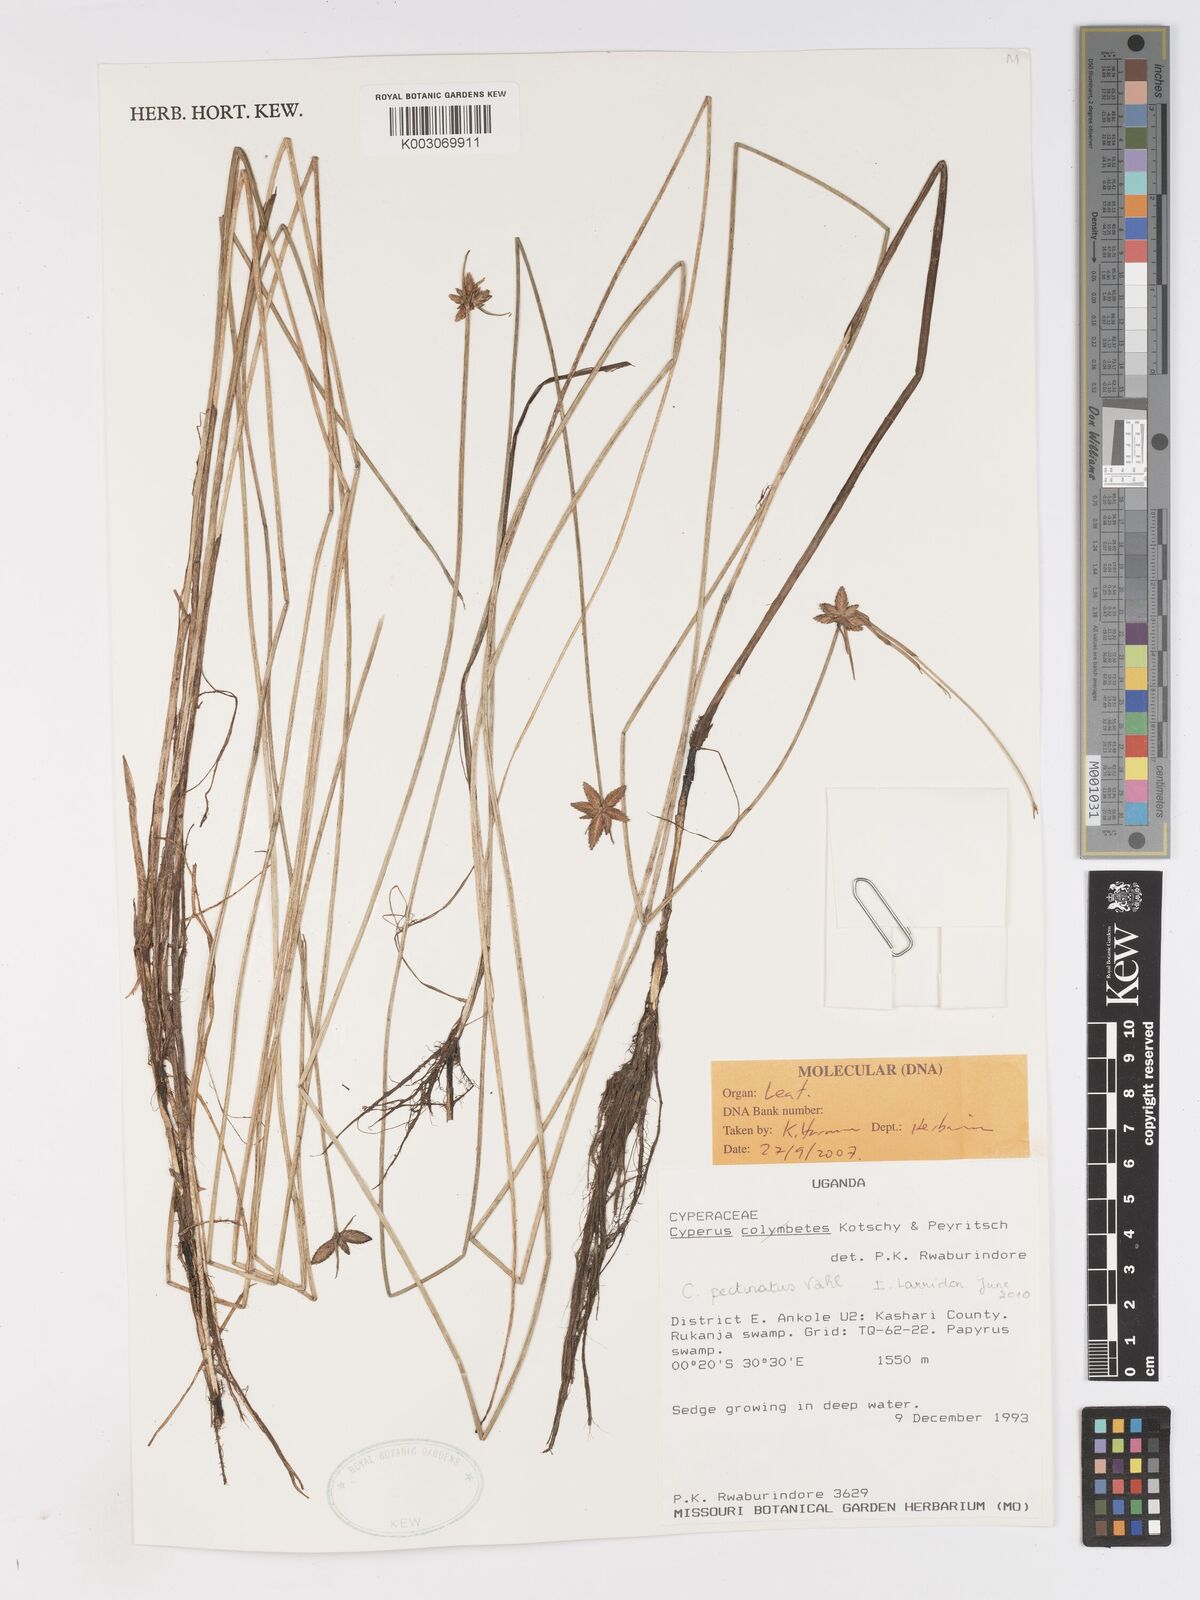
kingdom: Plantae
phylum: Tracheophyta
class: Liliopsida
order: Poales
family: Cyperaceae
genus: Cyperus
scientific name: Cyperus pectinatus
